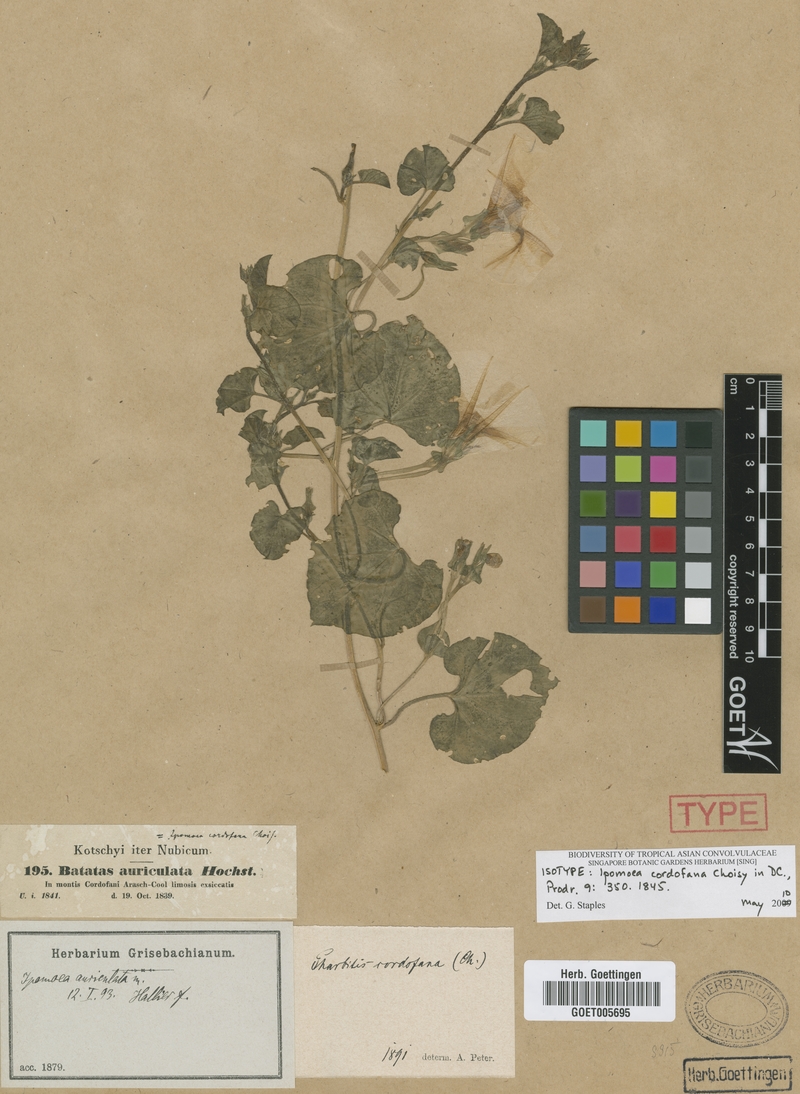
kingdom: Plantae
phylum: Tracheophyta
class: Magnoliopsida
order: Solanales
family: Convolvulaceae
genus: Ipomoea
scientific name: Ipomoea cordofana
